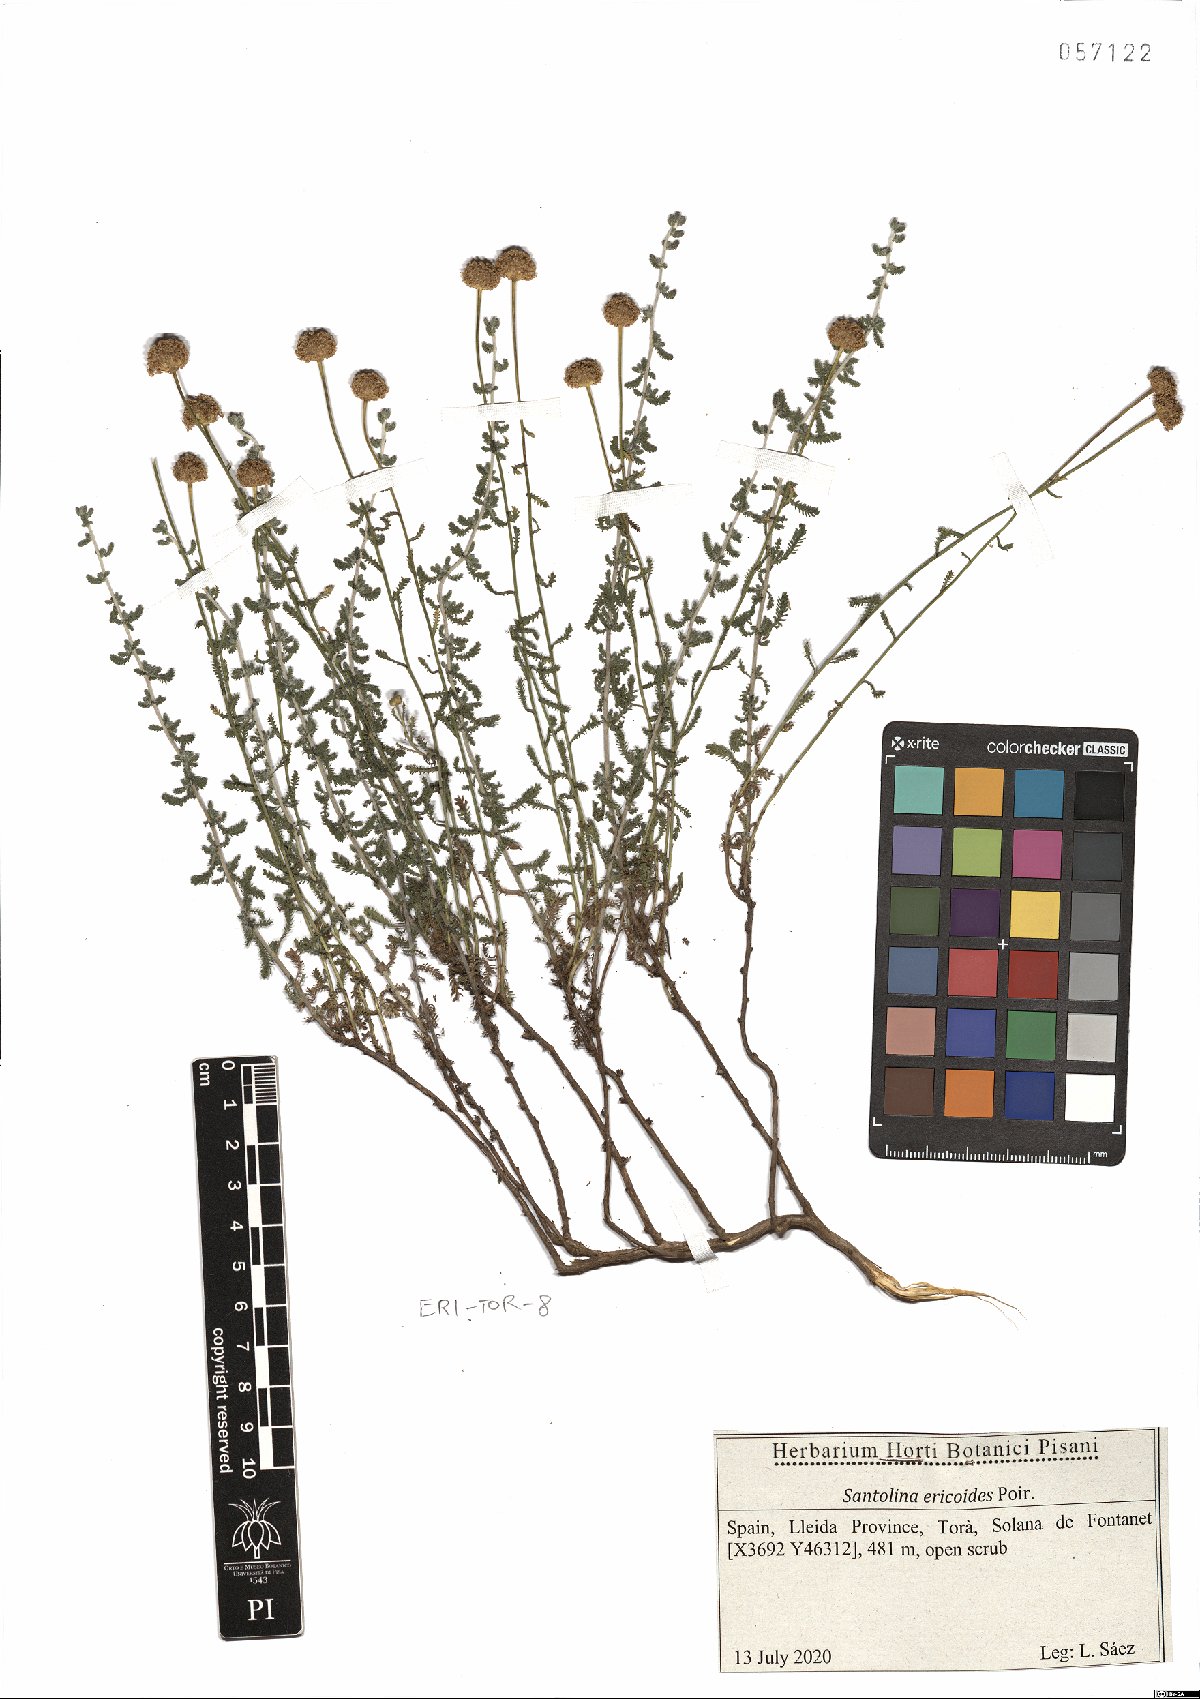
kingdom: Plantae
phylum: Tracheophyta
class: Magnoliopsida
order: Asterales
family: Asteraceae
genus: Santolina
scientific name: Santolina ericoides
